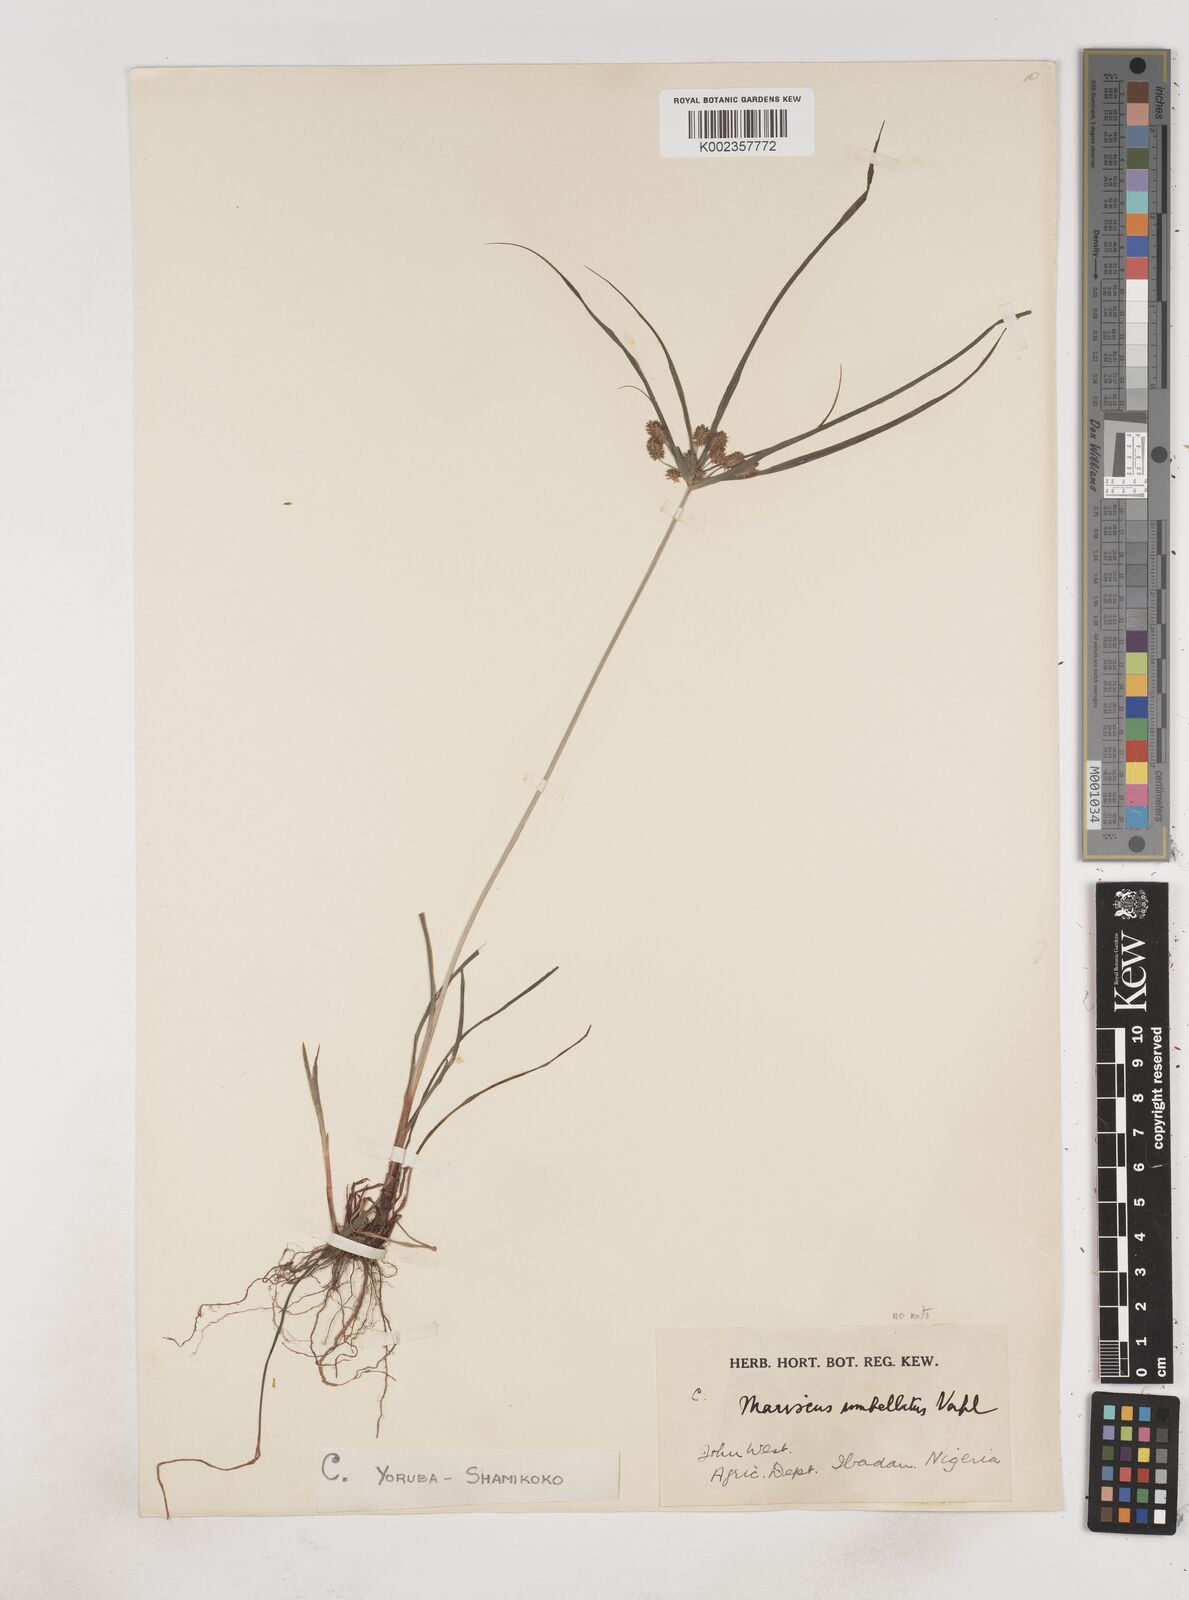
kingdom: Plantae
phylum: Tracheophyta
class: Liliopsida
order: Poales
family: Cyperaceae
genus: Cyperus
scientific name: Cyperus sublimis
